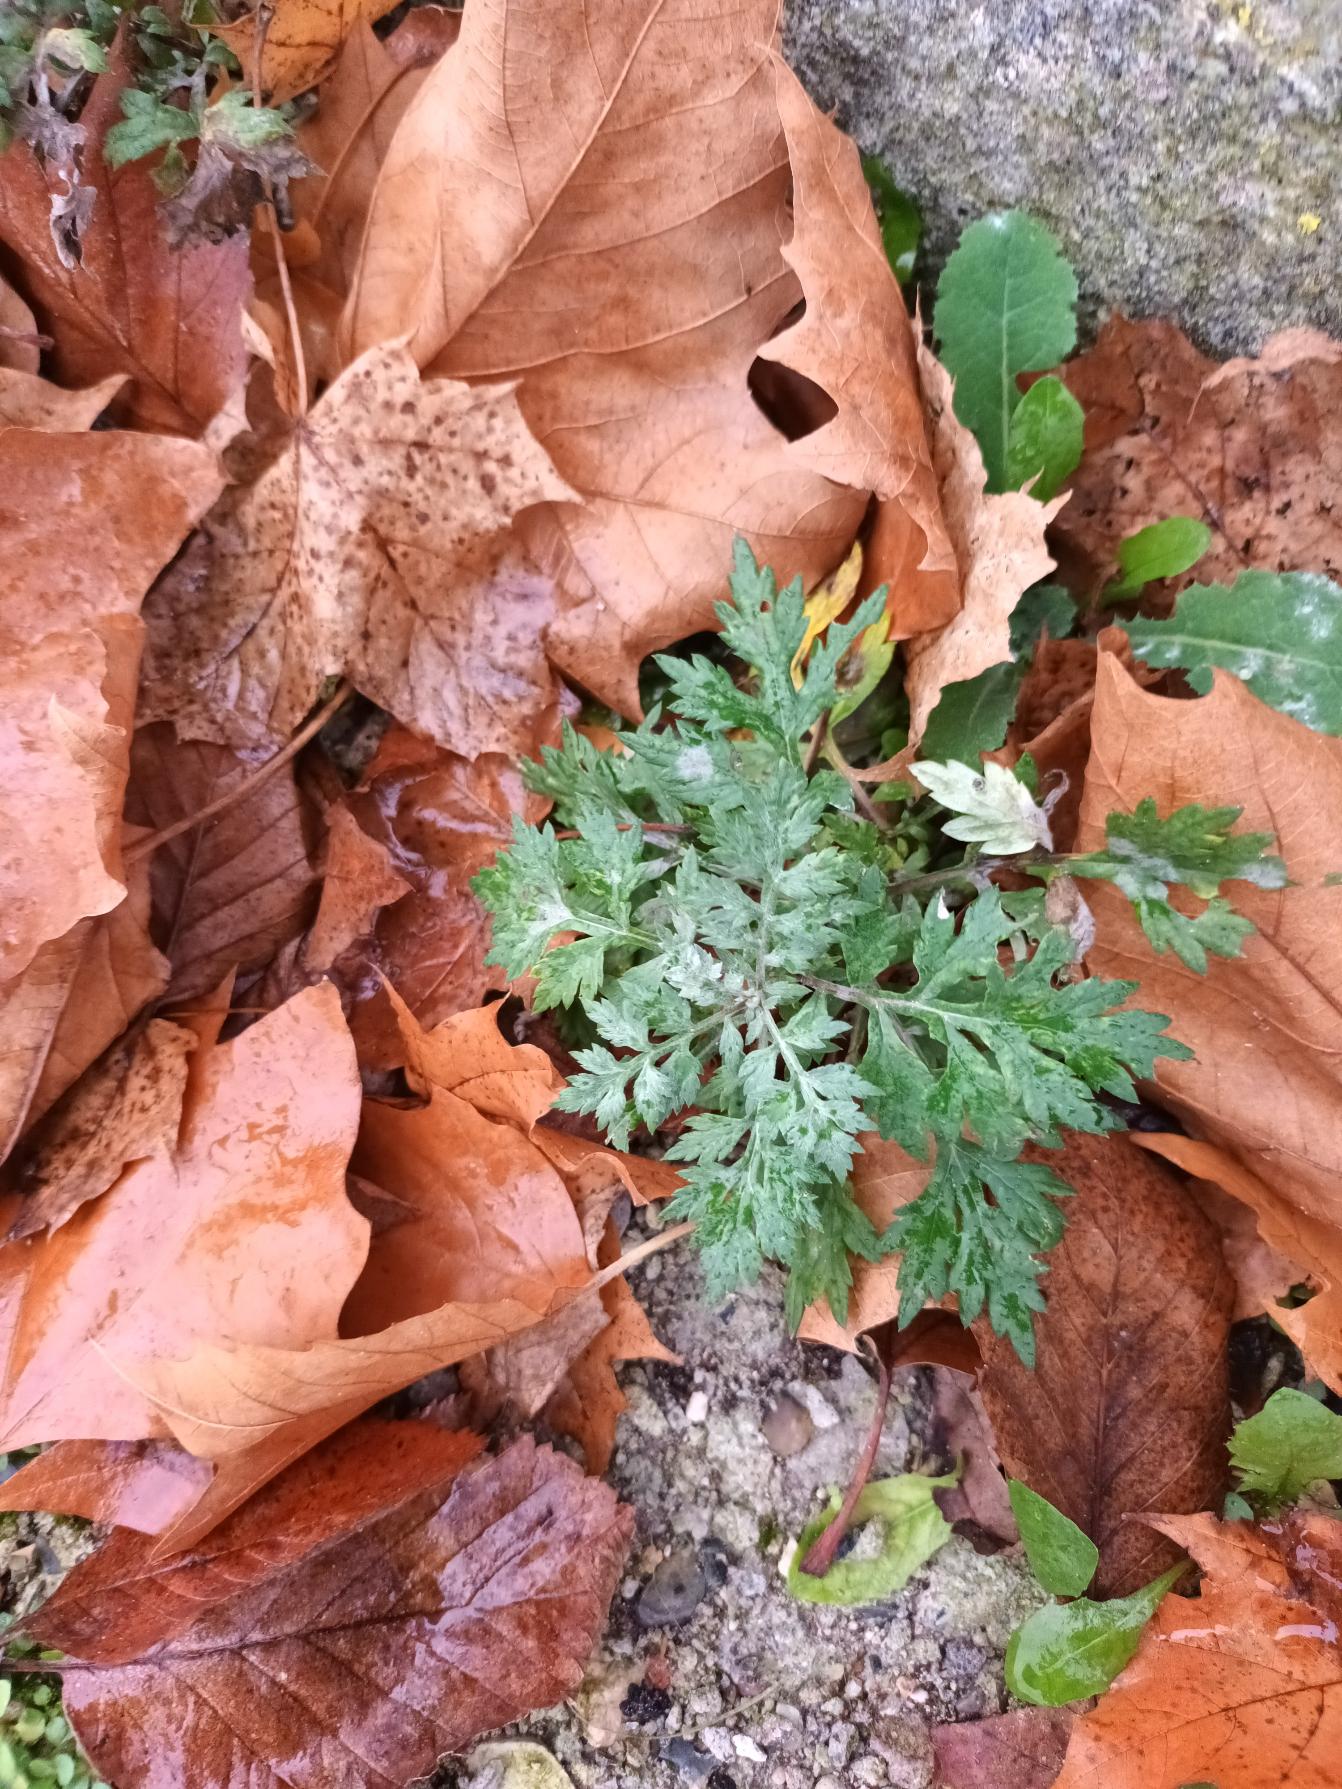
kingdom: Plantae
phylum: Tracheophyta
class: Magnoliopsida
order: Asterales
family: Asteraceae
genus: Artemisia
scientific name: Artemisia vulgaris
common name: Grå-bynke
